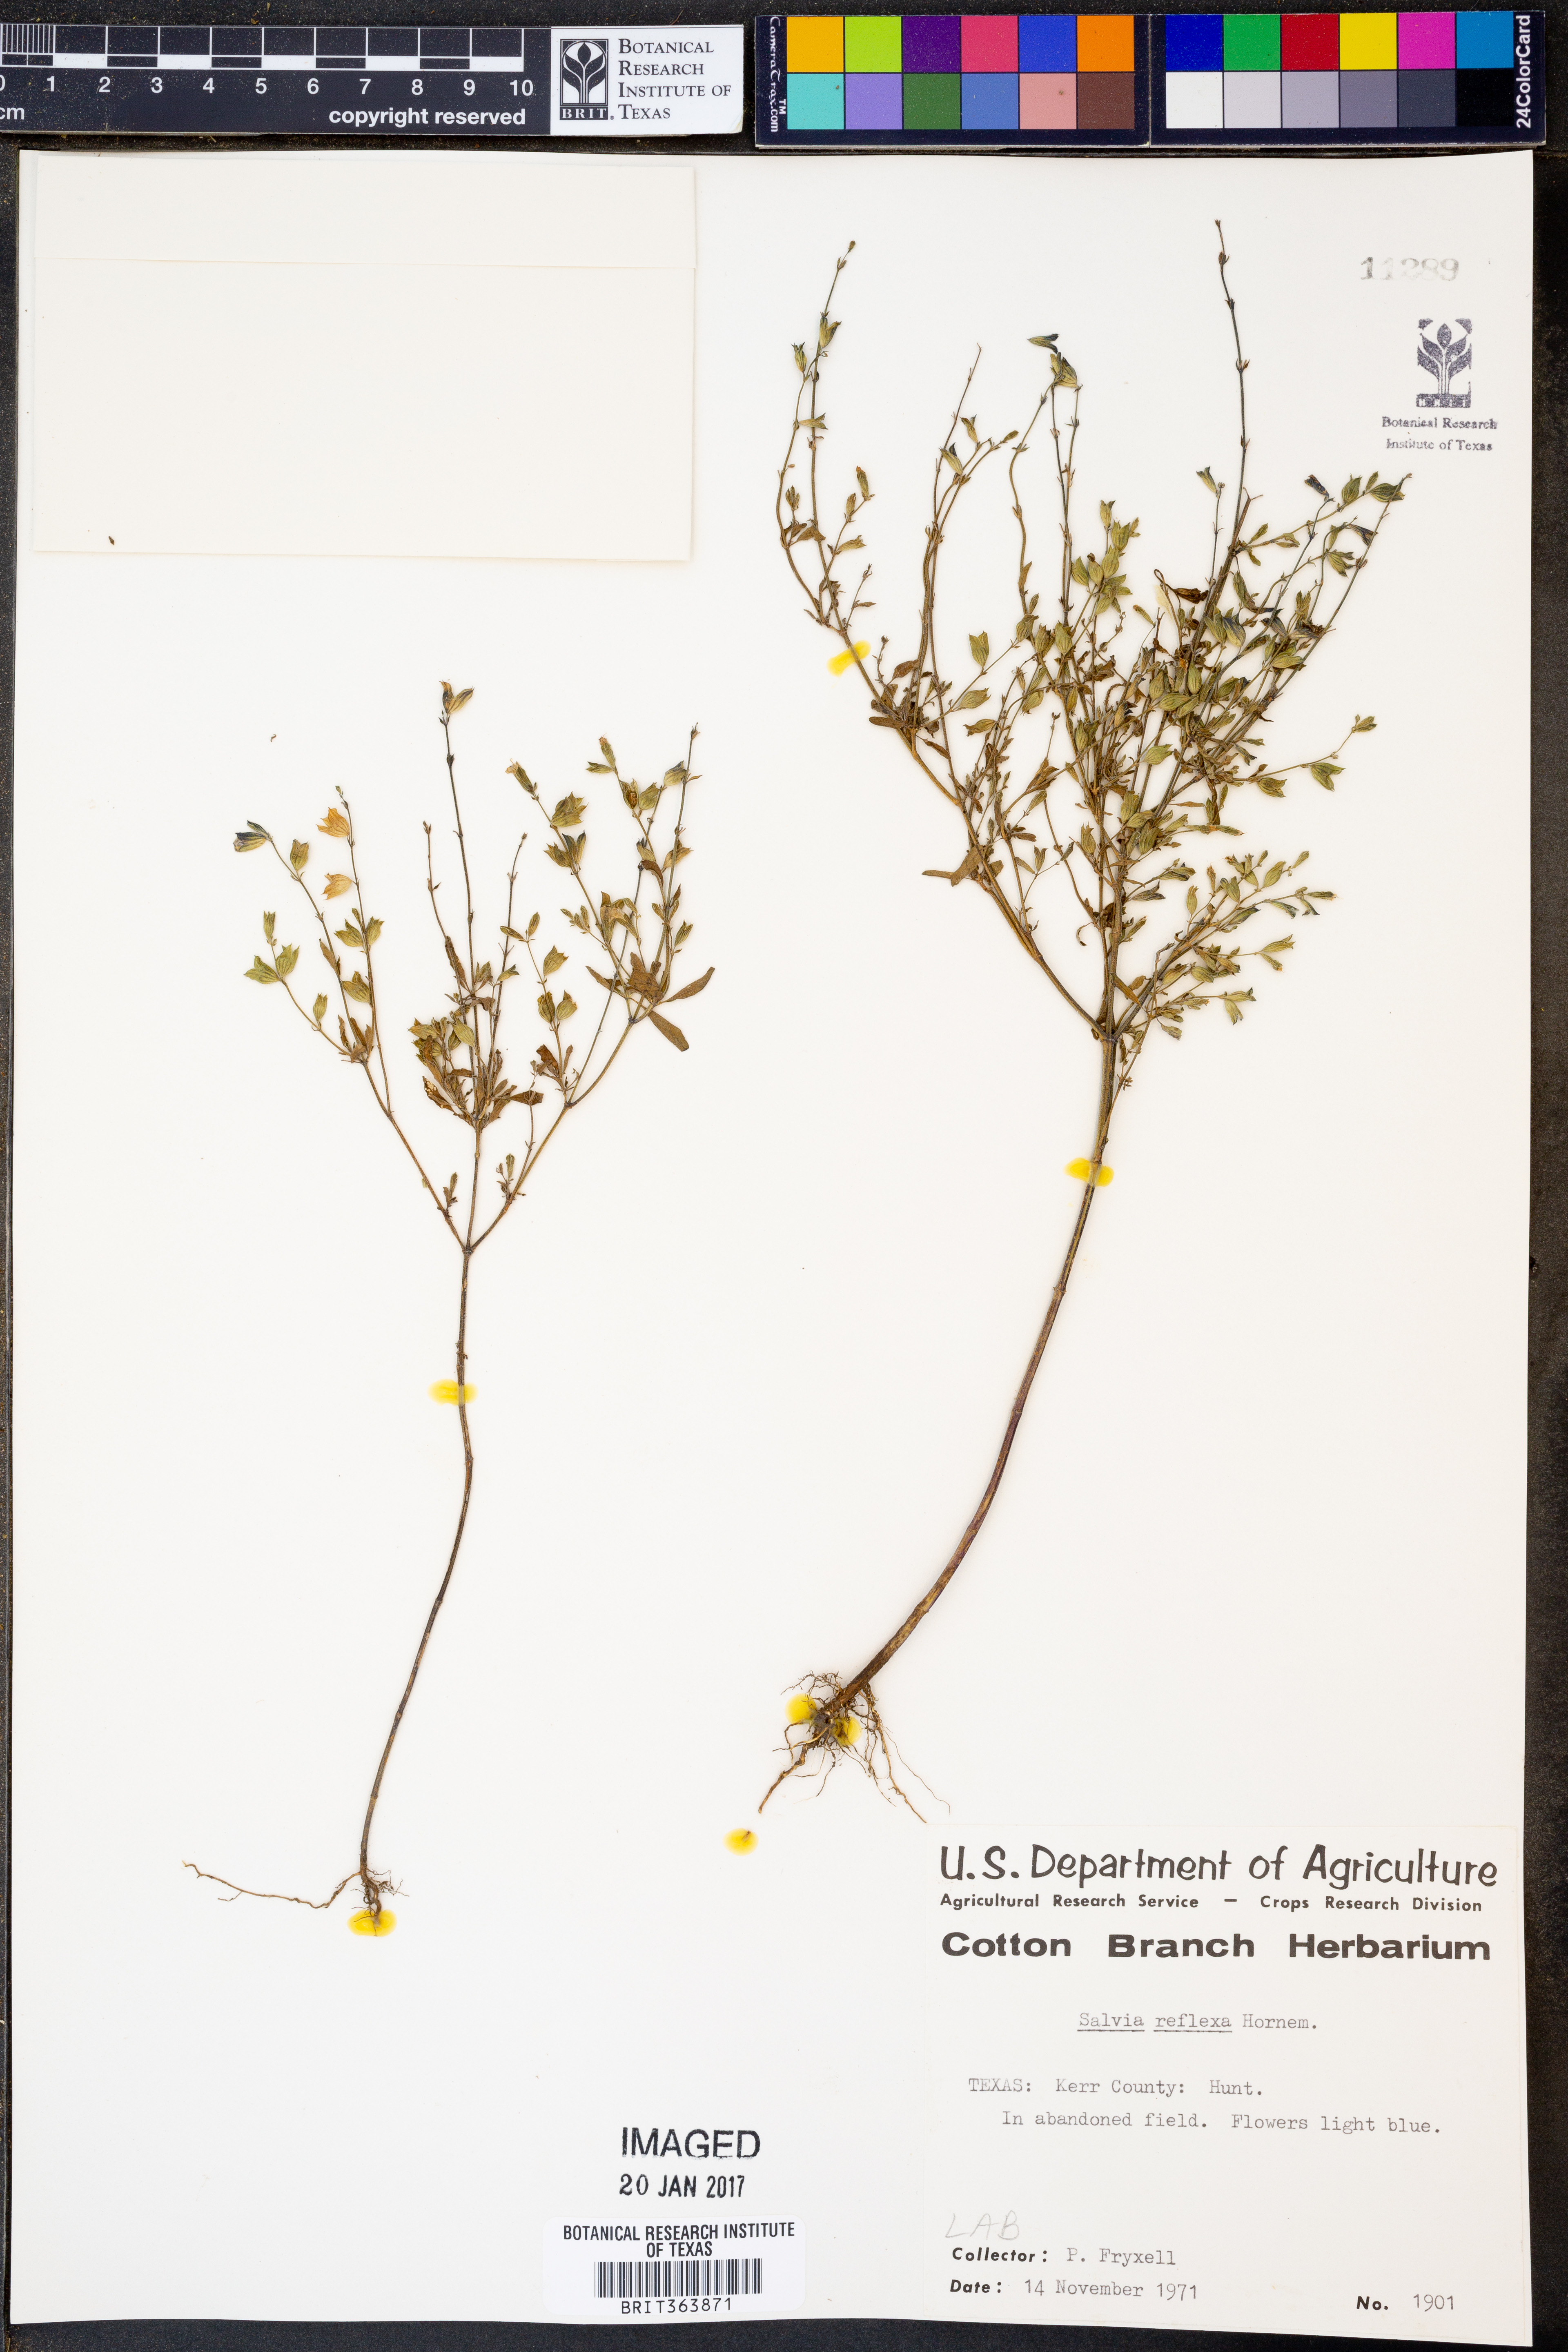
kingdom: Plantae
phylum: Tracheophyta
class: Magnoliopsida
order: Lamiales
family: Lamiaceae
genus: Salvia
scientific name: Salvia reflexa
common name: Mintweed
